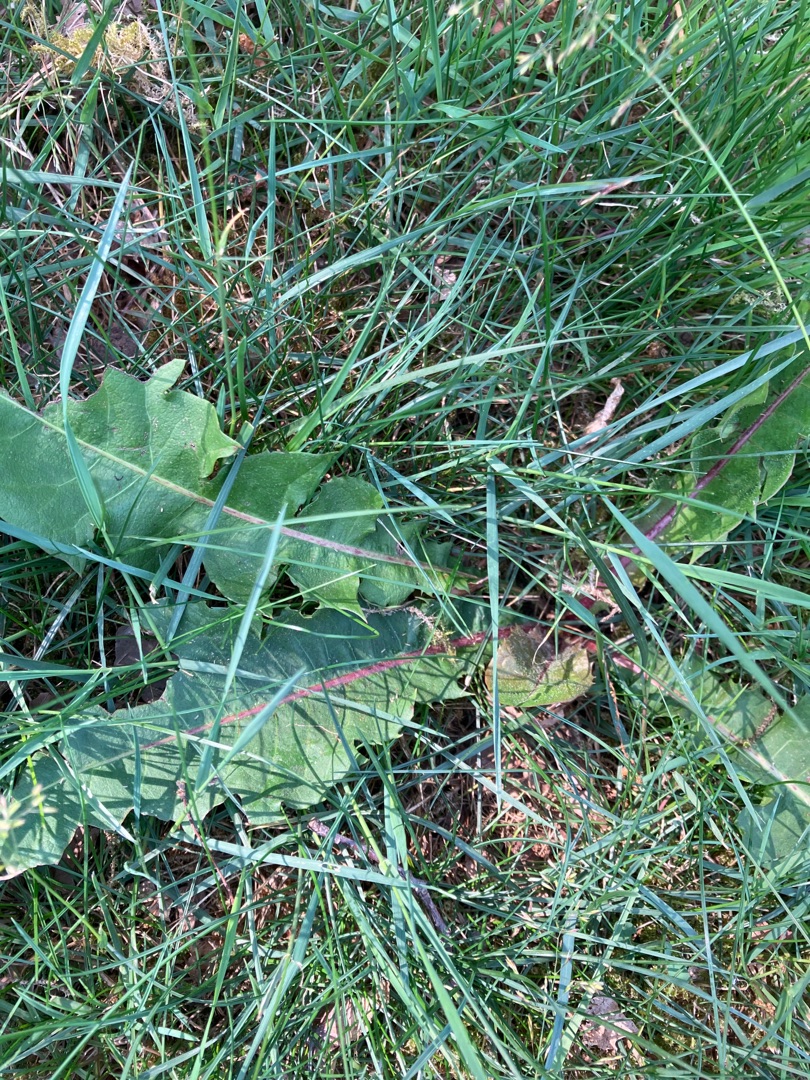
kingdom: Plantae
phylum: Tracheophyta
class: Magnoliopsida
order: Asterales
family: Asteraceae
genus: Taraxacum
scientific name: Taraxacum
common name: Mælkebøtteslægten
